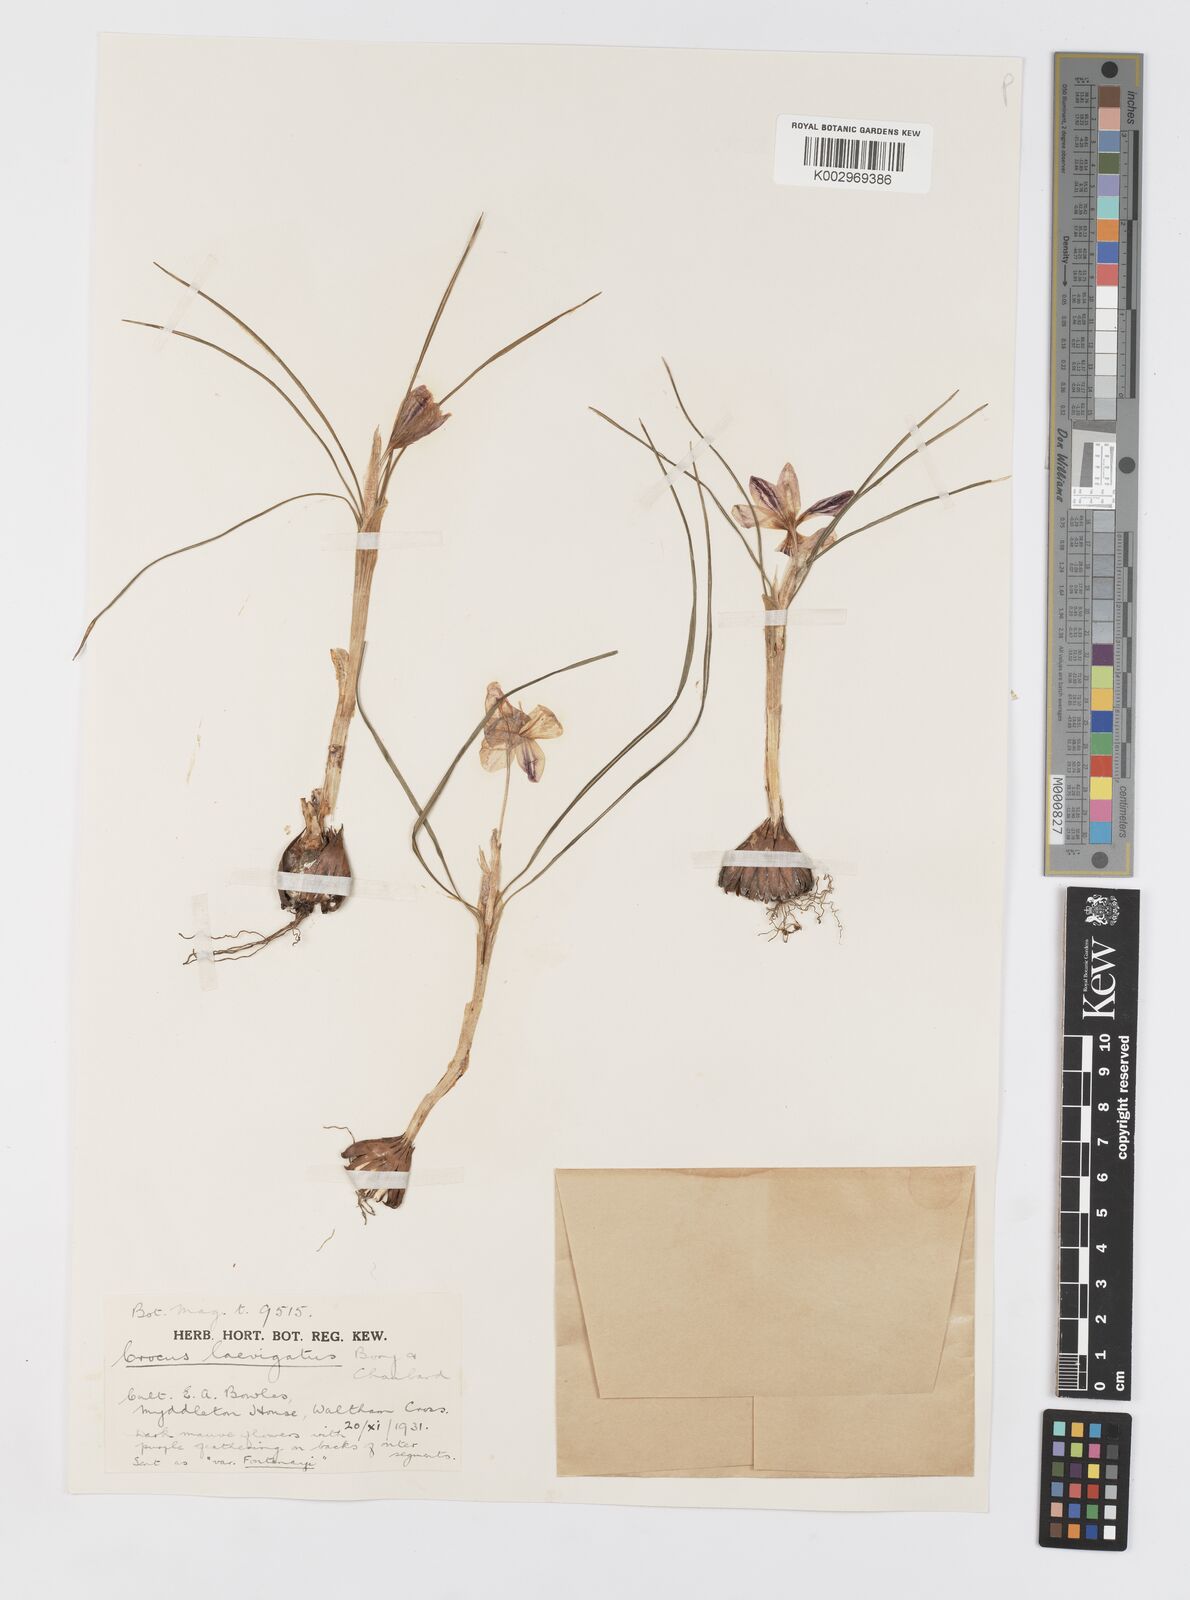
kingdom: Plantae
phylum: Tracheophyta
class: Liliopsida
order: Asparagales
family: Iridaceae
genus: Crocus
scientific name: Crocus laevigatus
